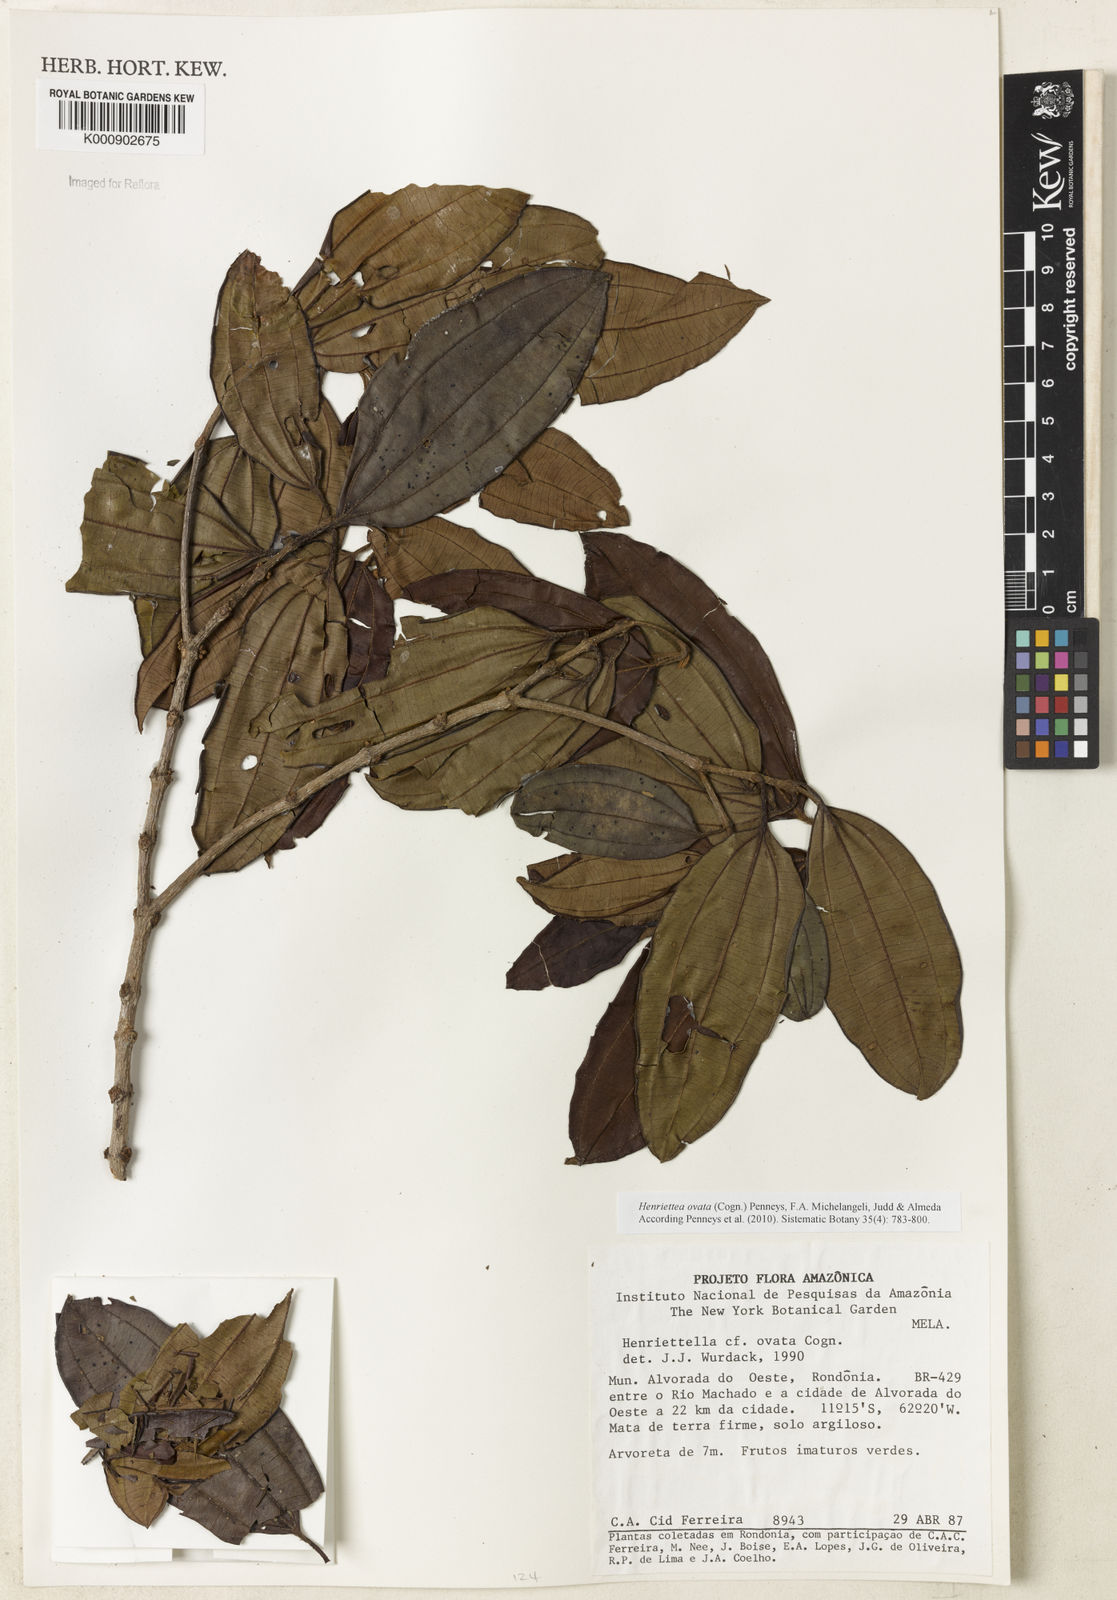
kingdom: Plantae
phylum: Tracheophyta
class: Magnoliopsida
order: Myrtales
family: Melastomataceae
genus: Henriettea
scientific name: Henriettea ovata
